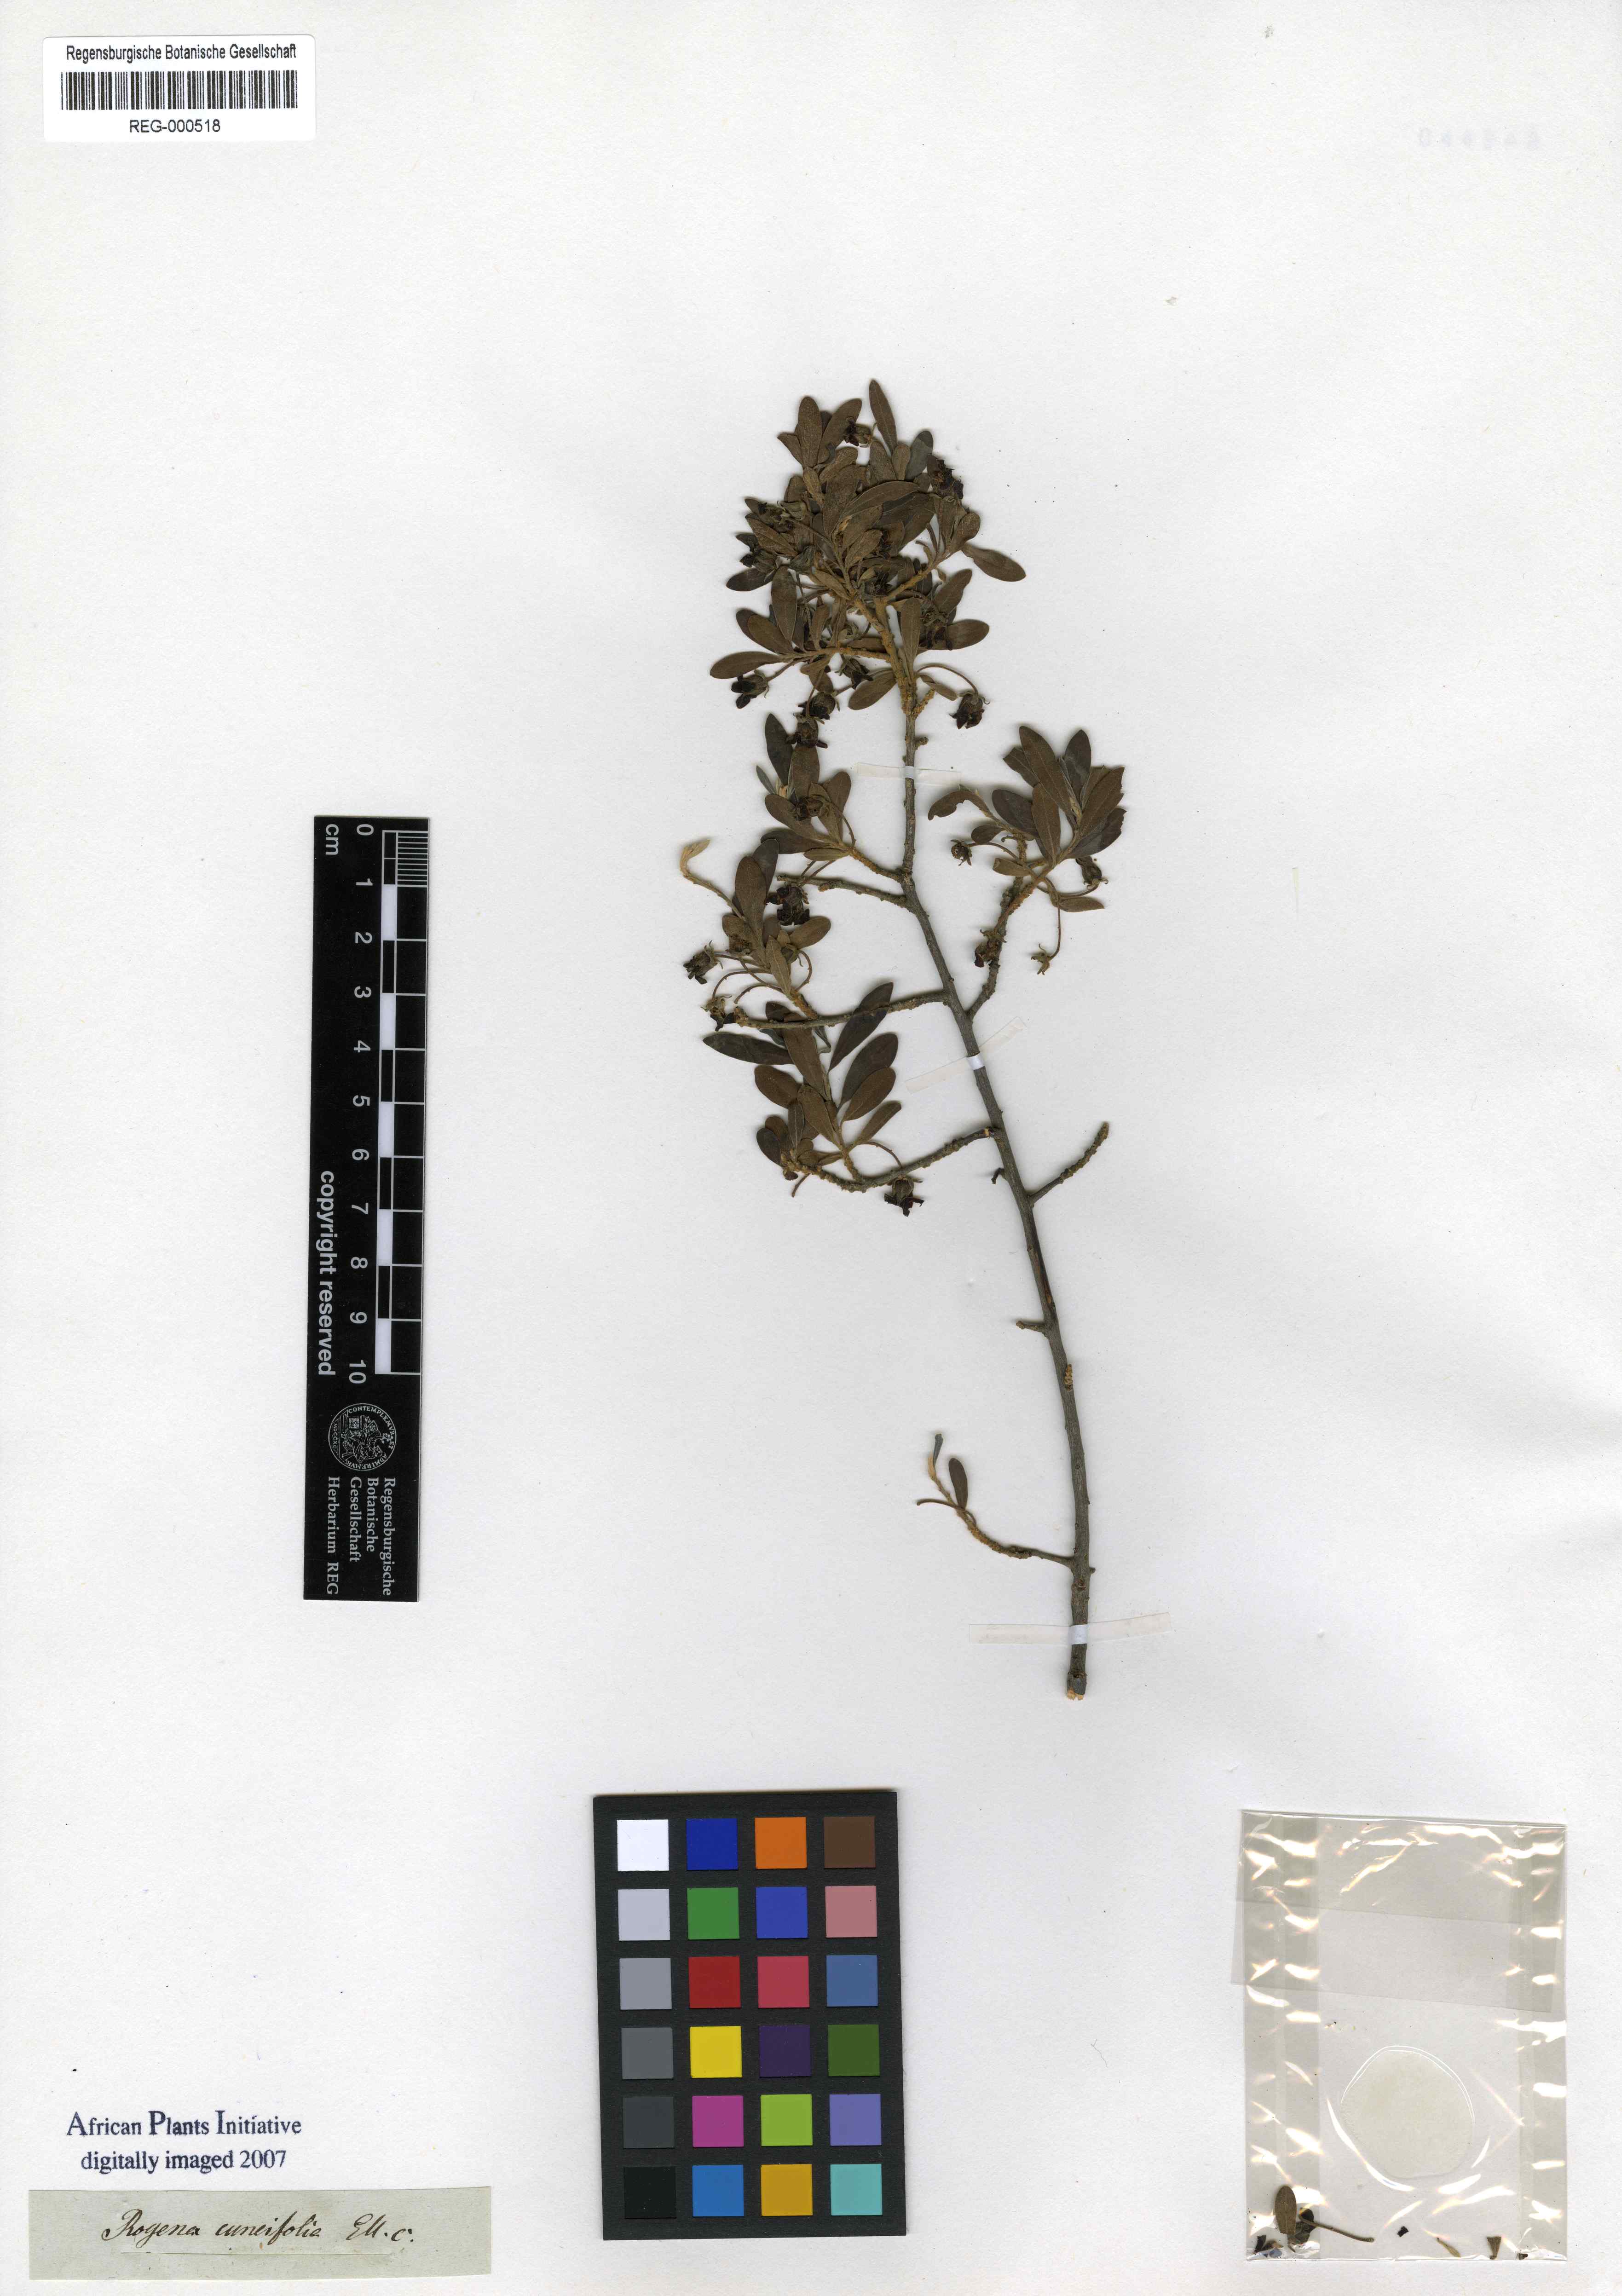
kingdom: Plantae
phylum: Tracheophyta
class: Magnoliopsida
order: Ericales
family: Ebenaceae
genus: Diospyros
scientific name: Diospyros pallens
